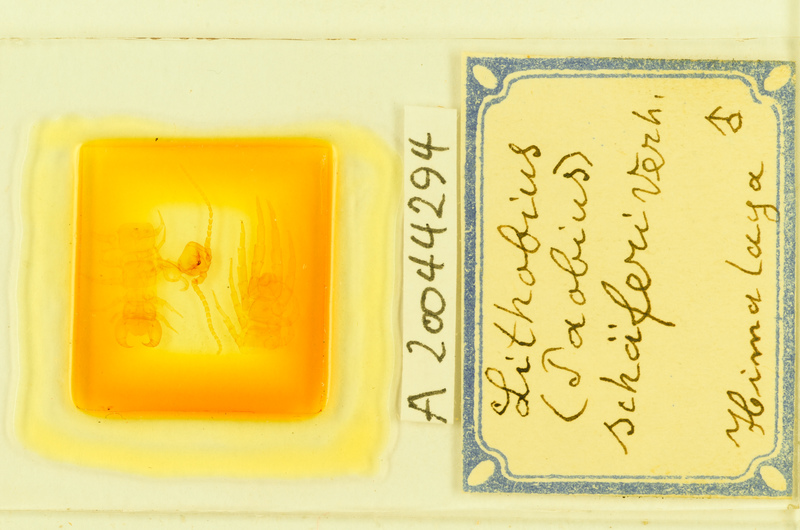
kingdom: Animalia
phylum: Arthropoda
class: Chilopoda
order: Lithobiomorpha
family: Lithobiidae
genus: Lithobius
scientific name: Lithobius schaeferi
